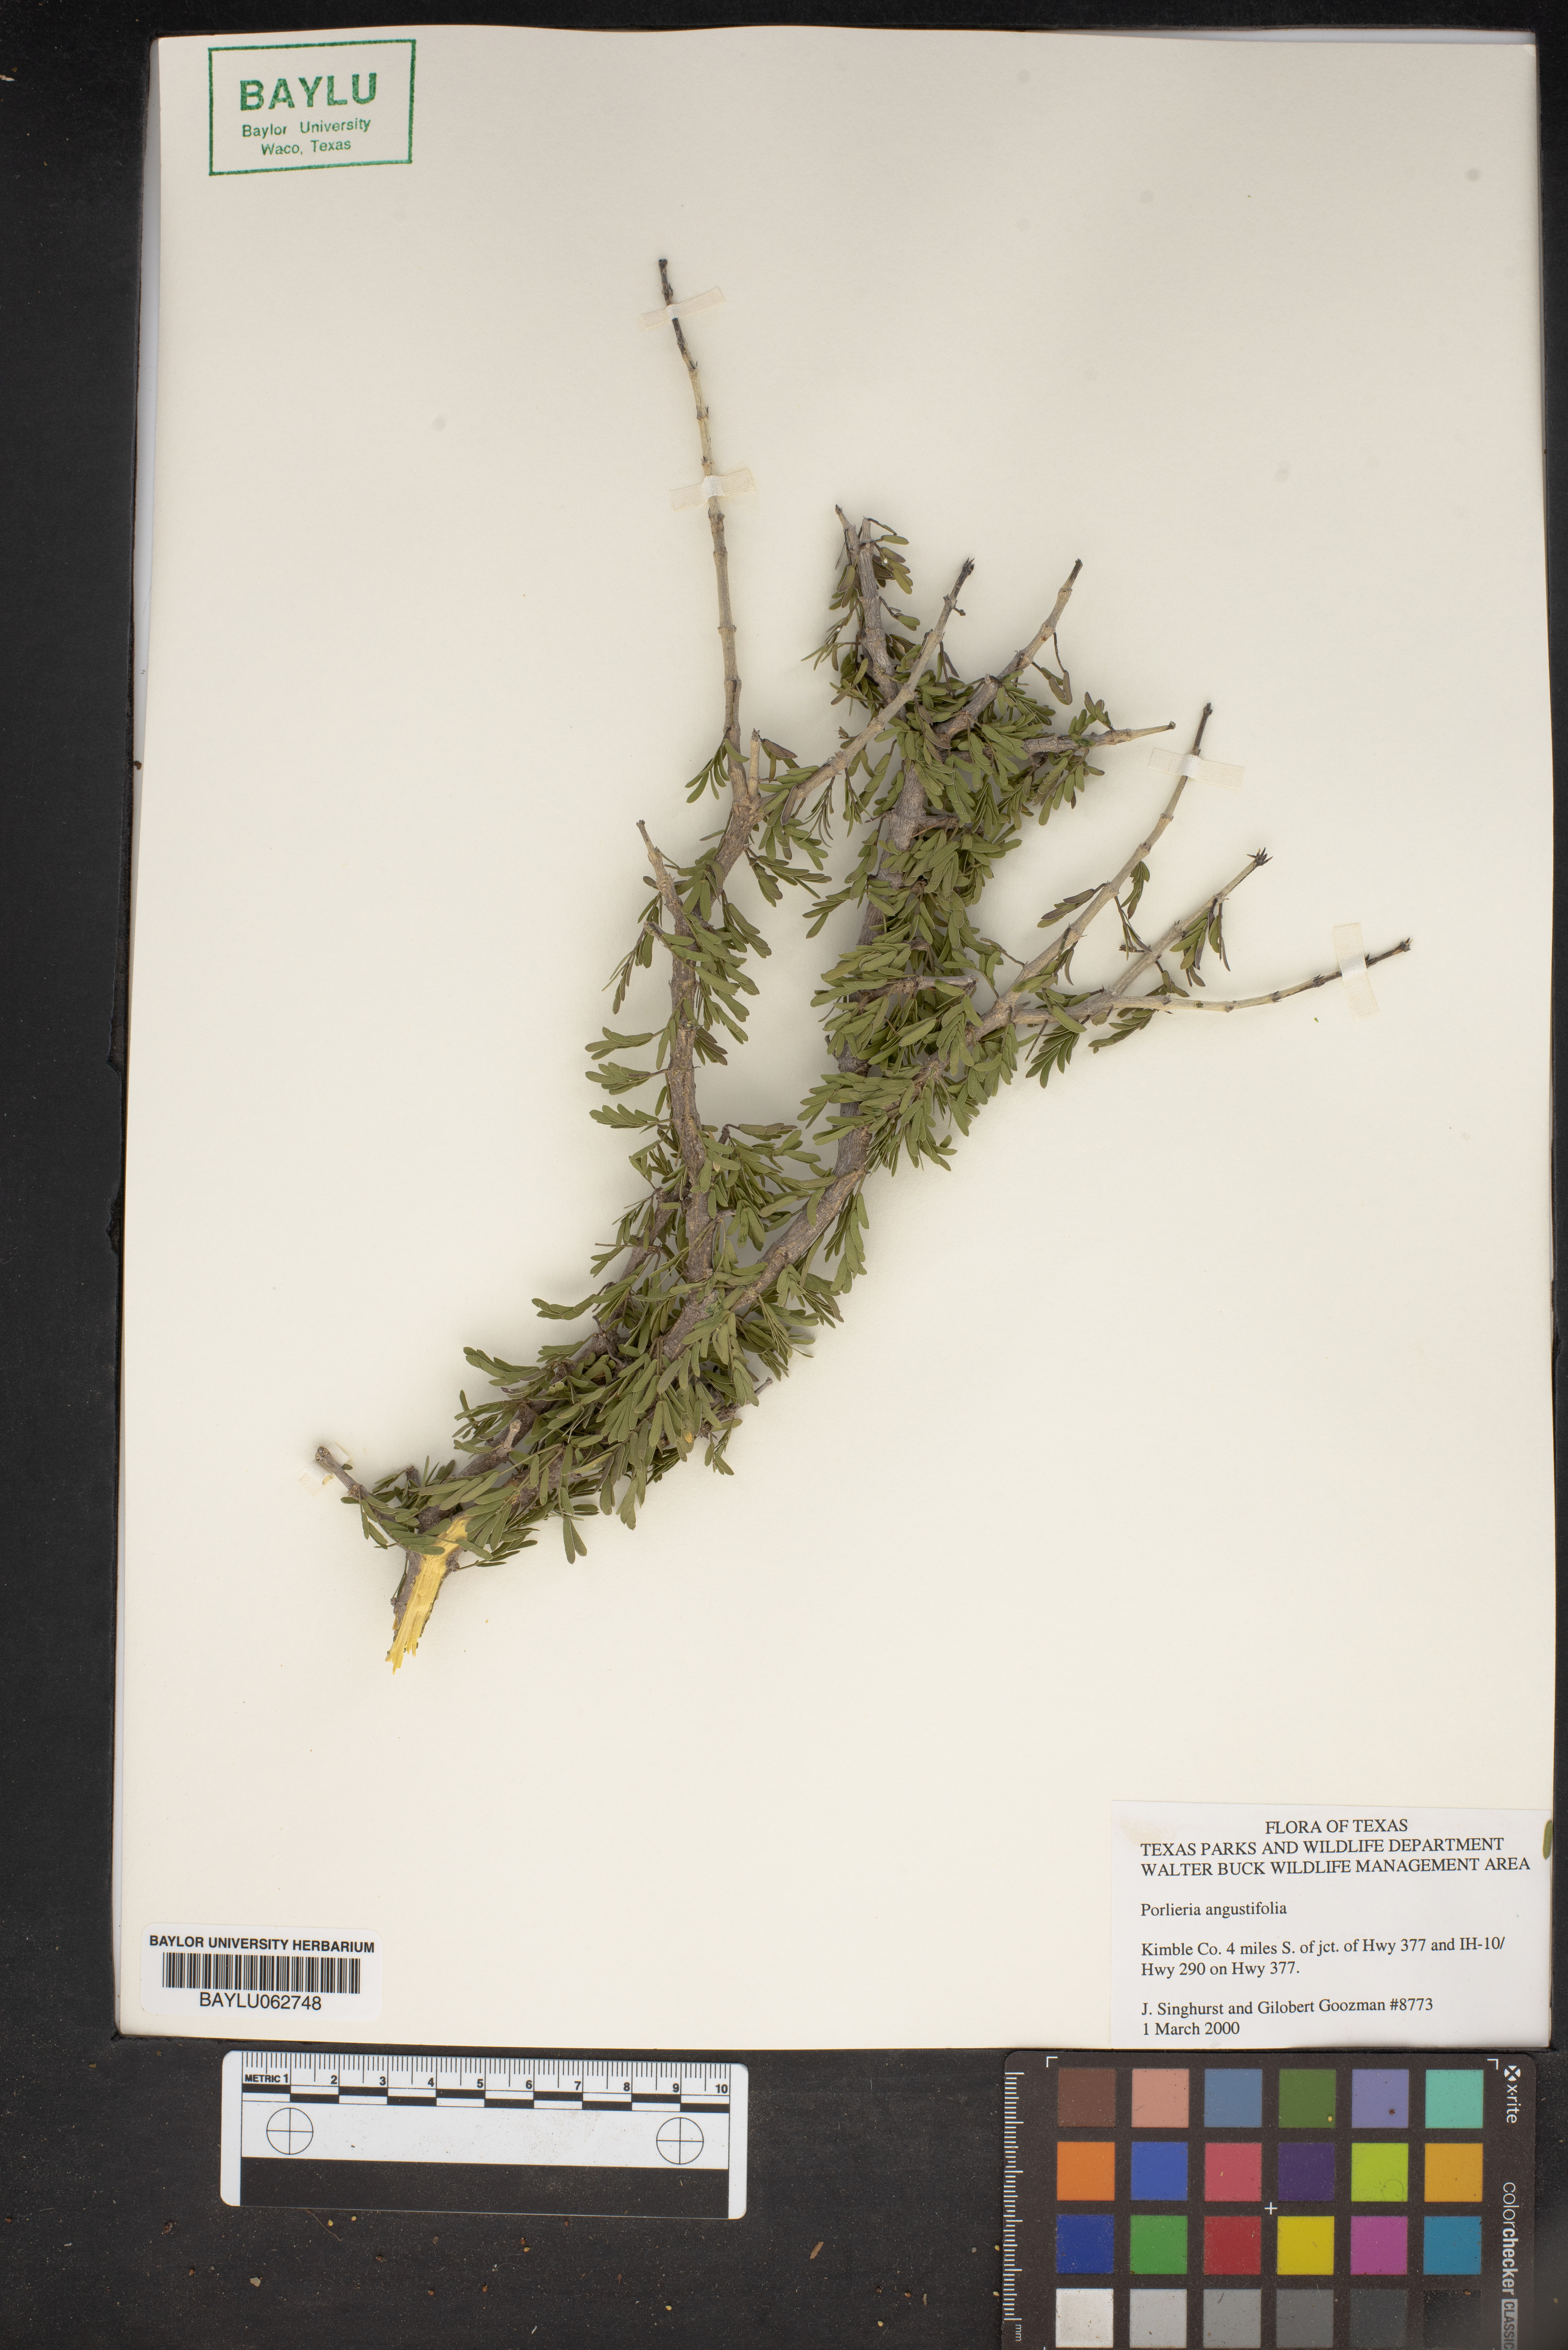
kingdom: Plantae
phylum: Tracheophyta
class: Magnoliopsida
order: Zygophyllales
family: Zygophyllaceae
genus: Porlieria
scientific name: Porlieria angustifolia
